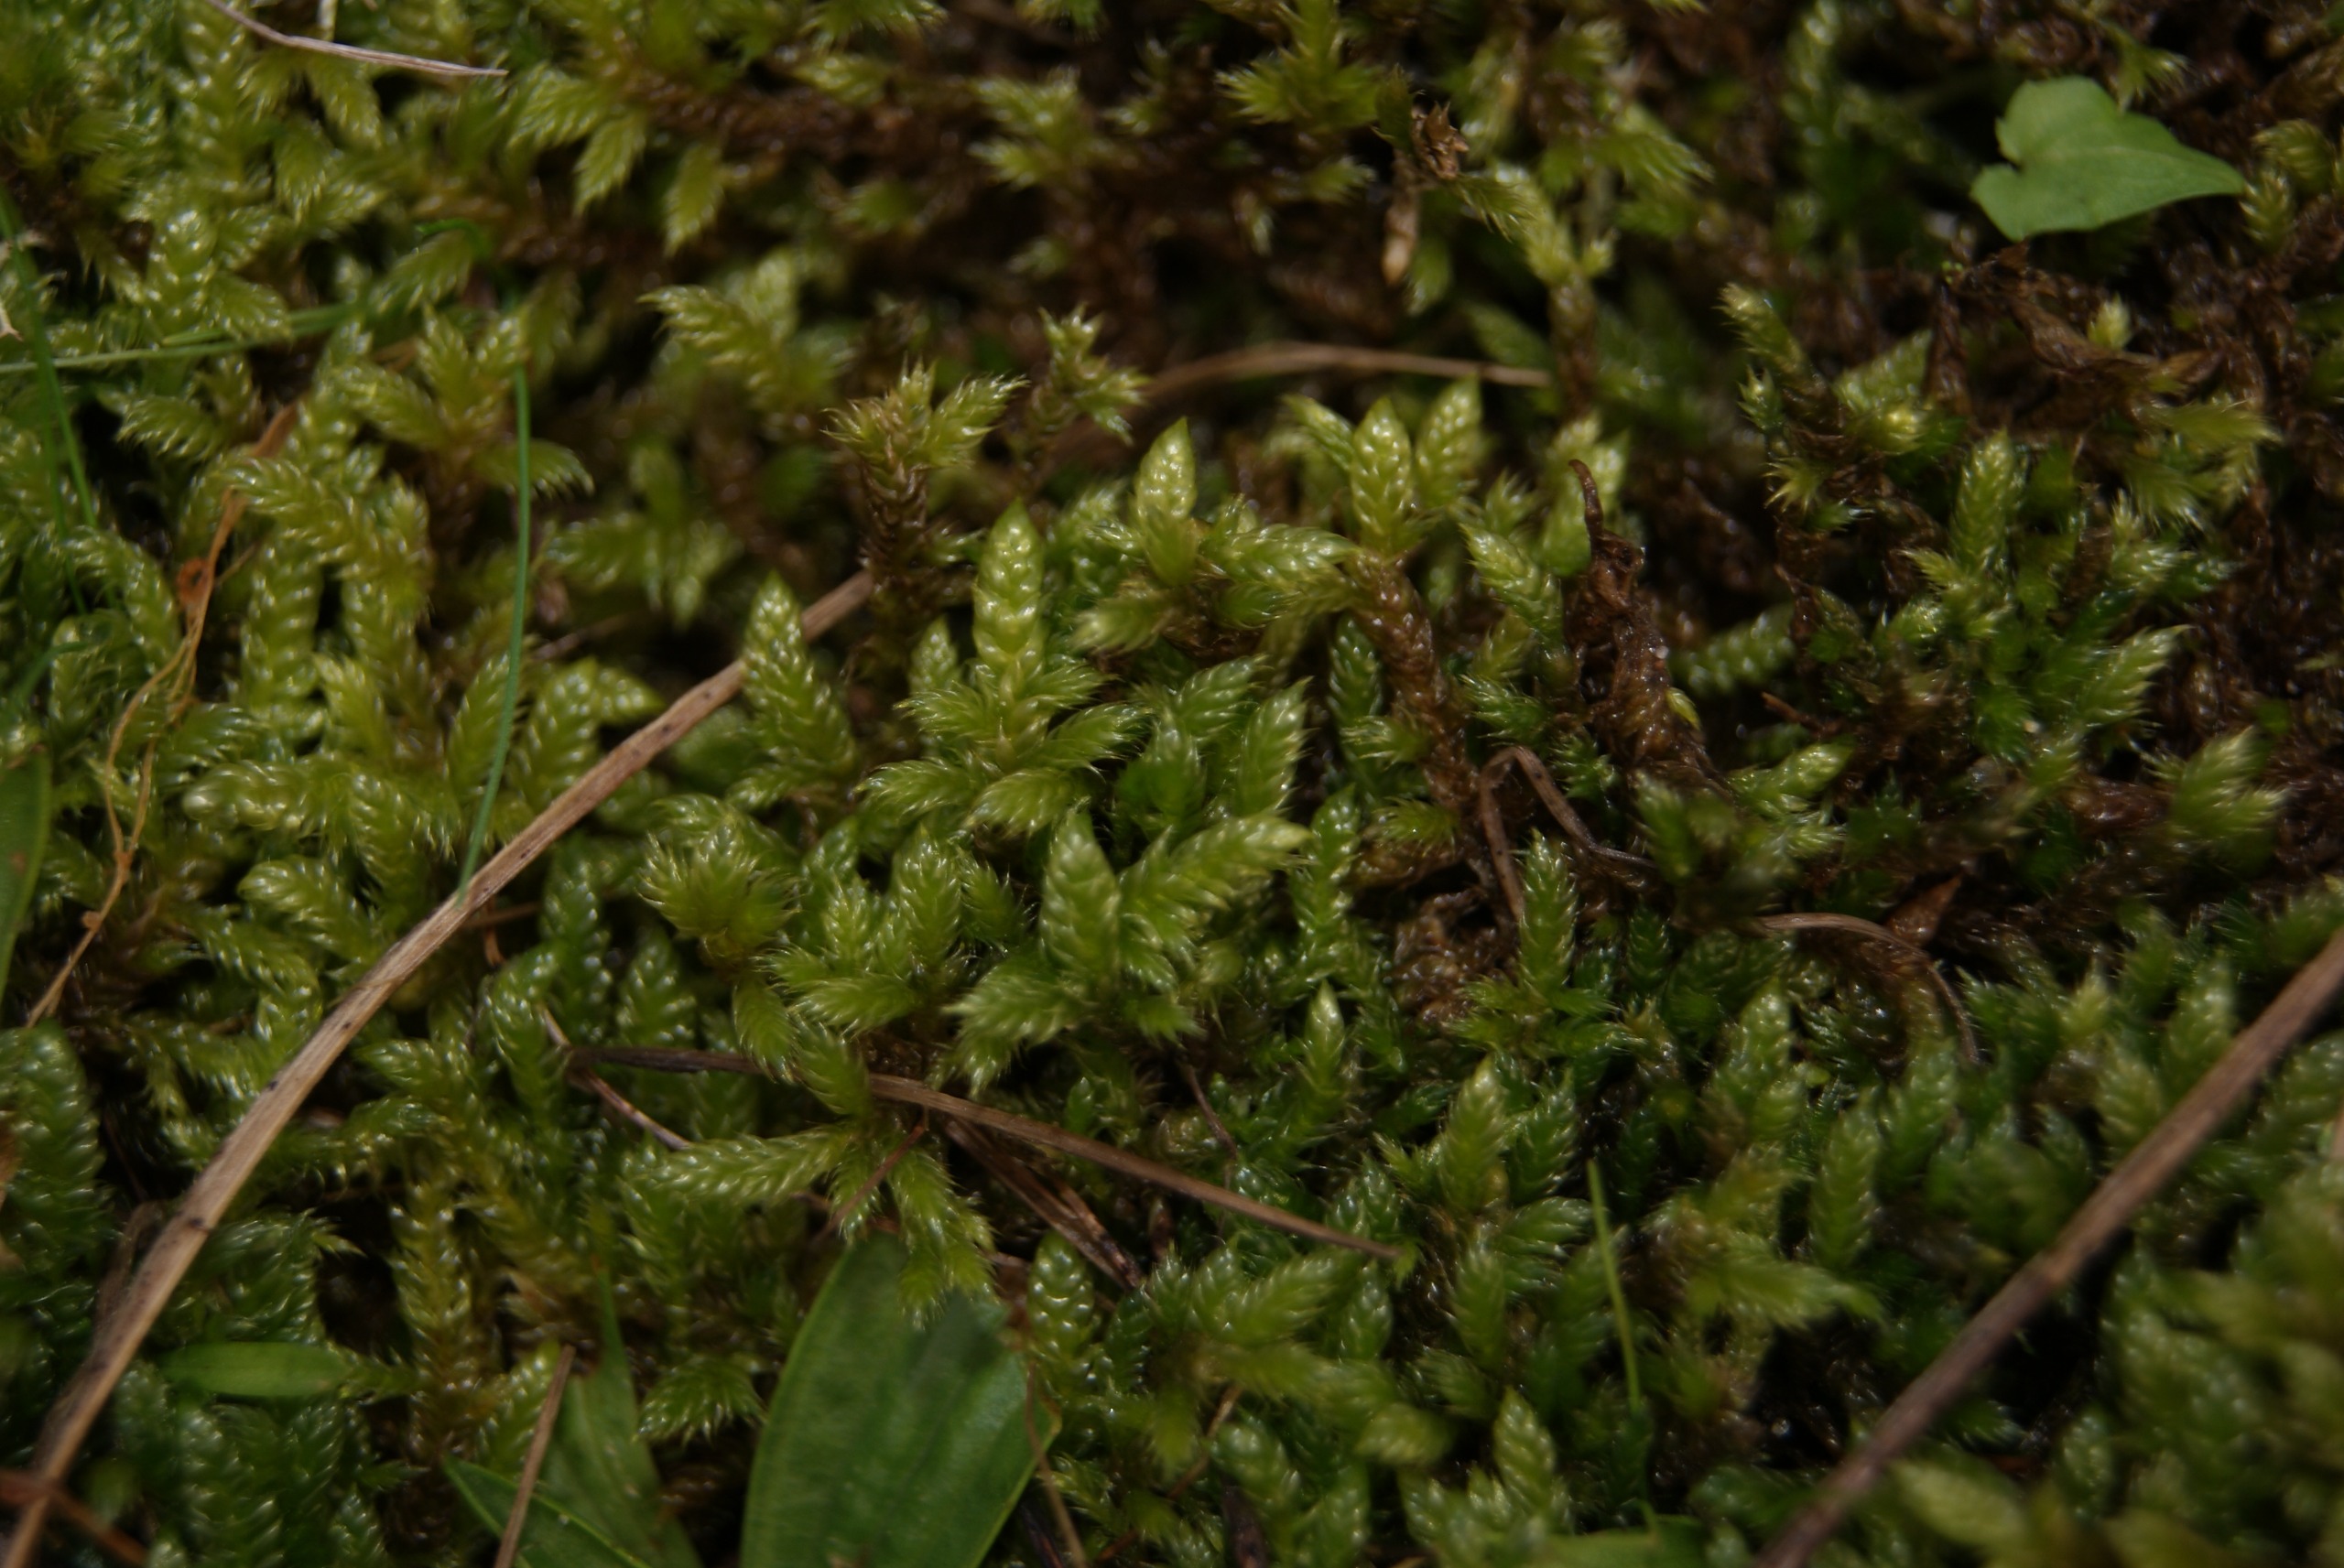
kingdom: Plantae
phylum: Bryophyta
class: Bryopsida
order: Hypnales
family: Hypnaceae
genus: Hypnum
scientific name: Hypnum cupressiforme
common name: Almindelig cypresmos
